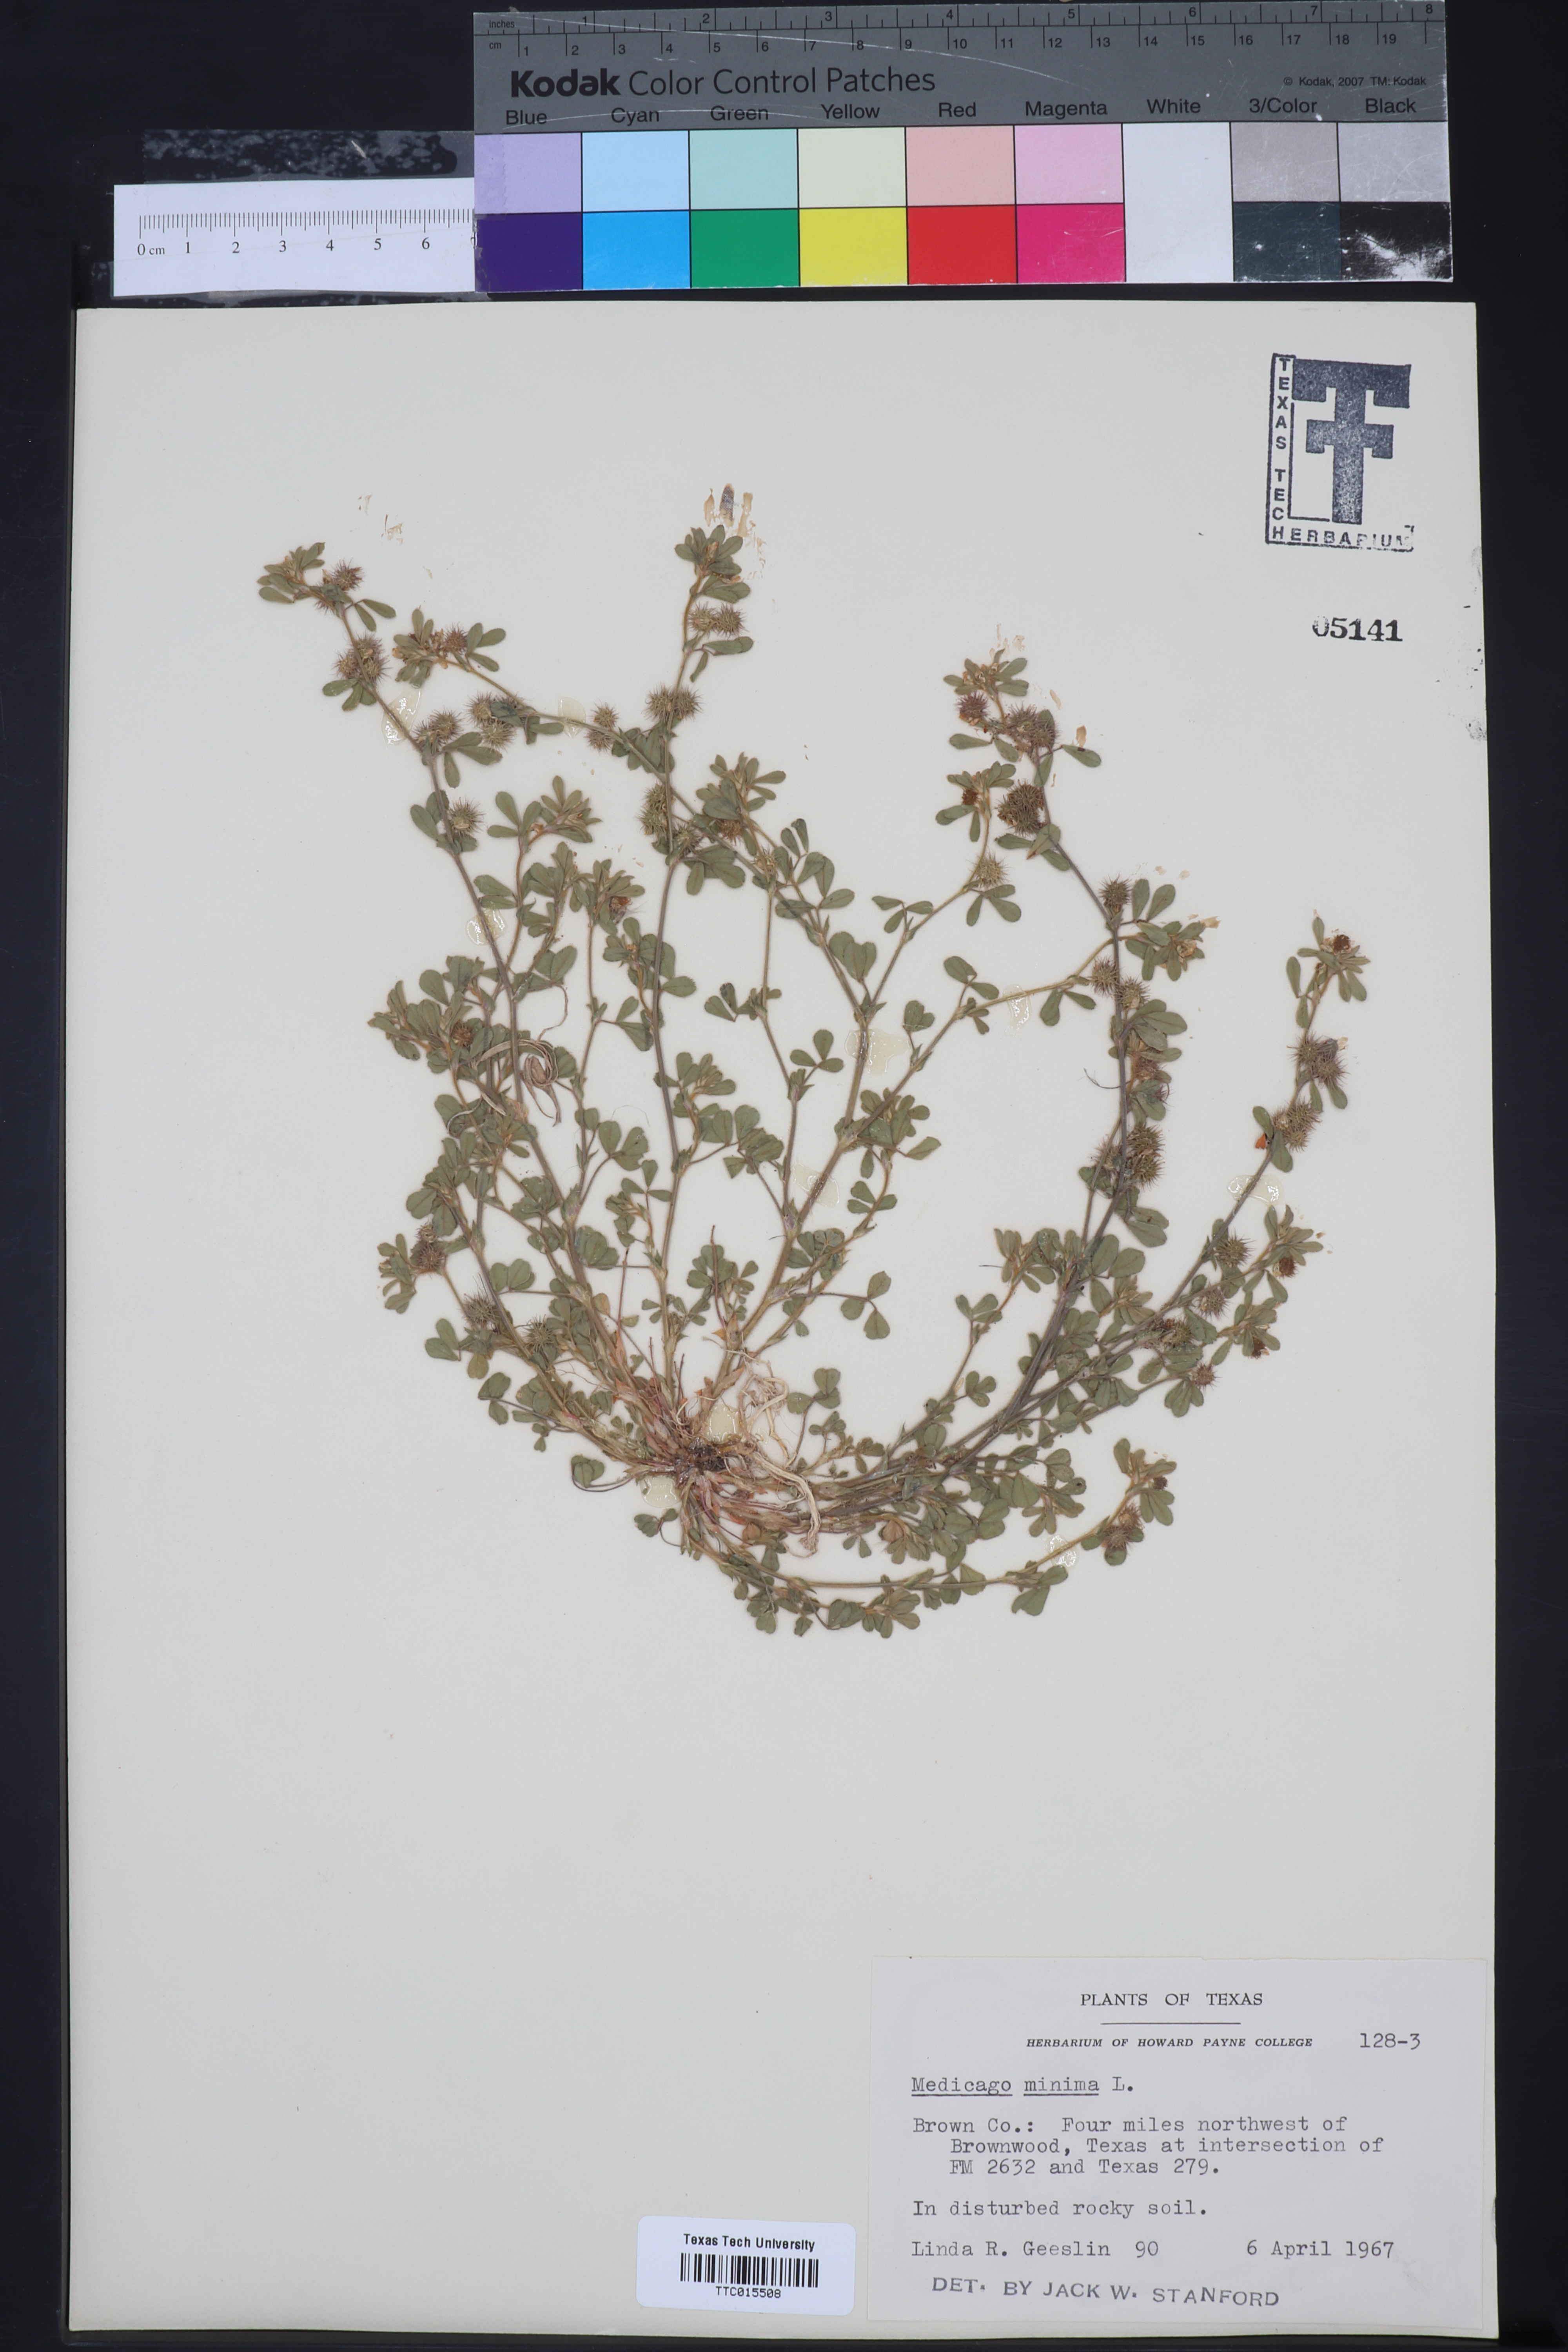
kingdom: Plantae
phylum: Tracheophyta
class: Magnoliopsida
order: Fabales
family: Fabaceae
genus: Medicago
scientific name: Medicago minima
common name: Little bur-clover
